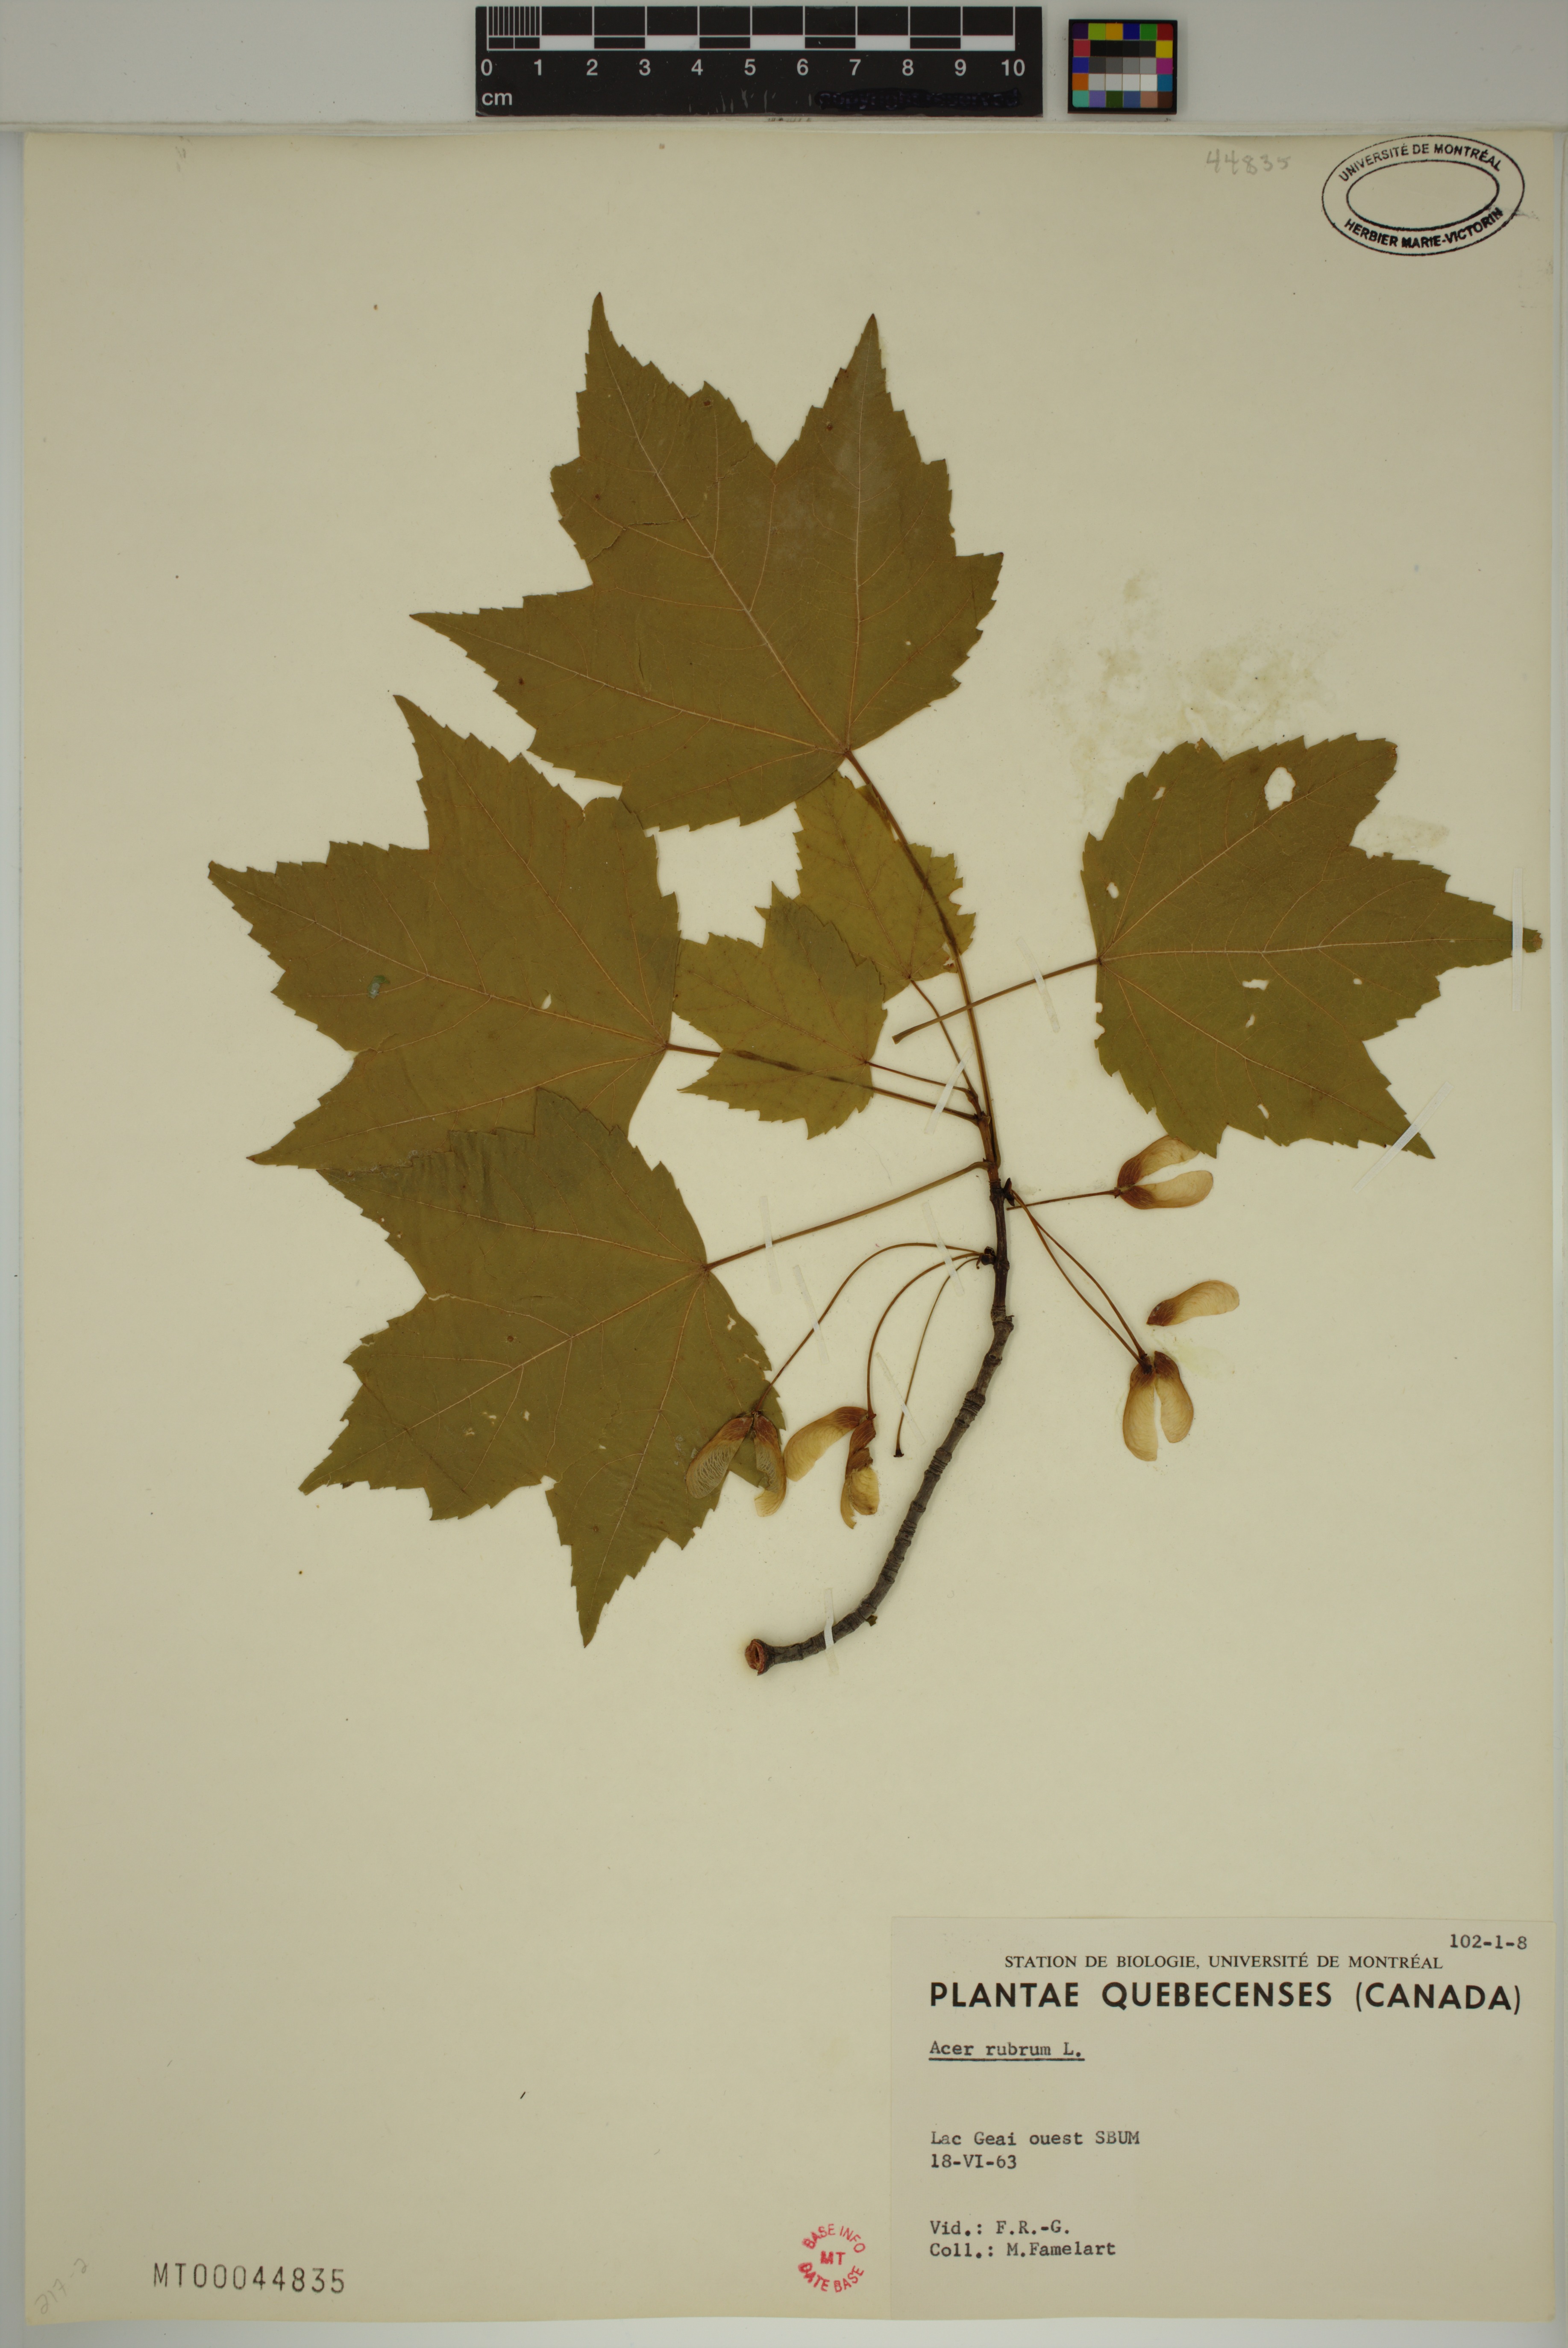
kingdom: Plantae
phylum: Tracheophyta
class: Magnoliopsida
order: Sapindales
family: Sapindaceae
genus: Acer
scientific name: Acer rubrum
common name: Red maple
